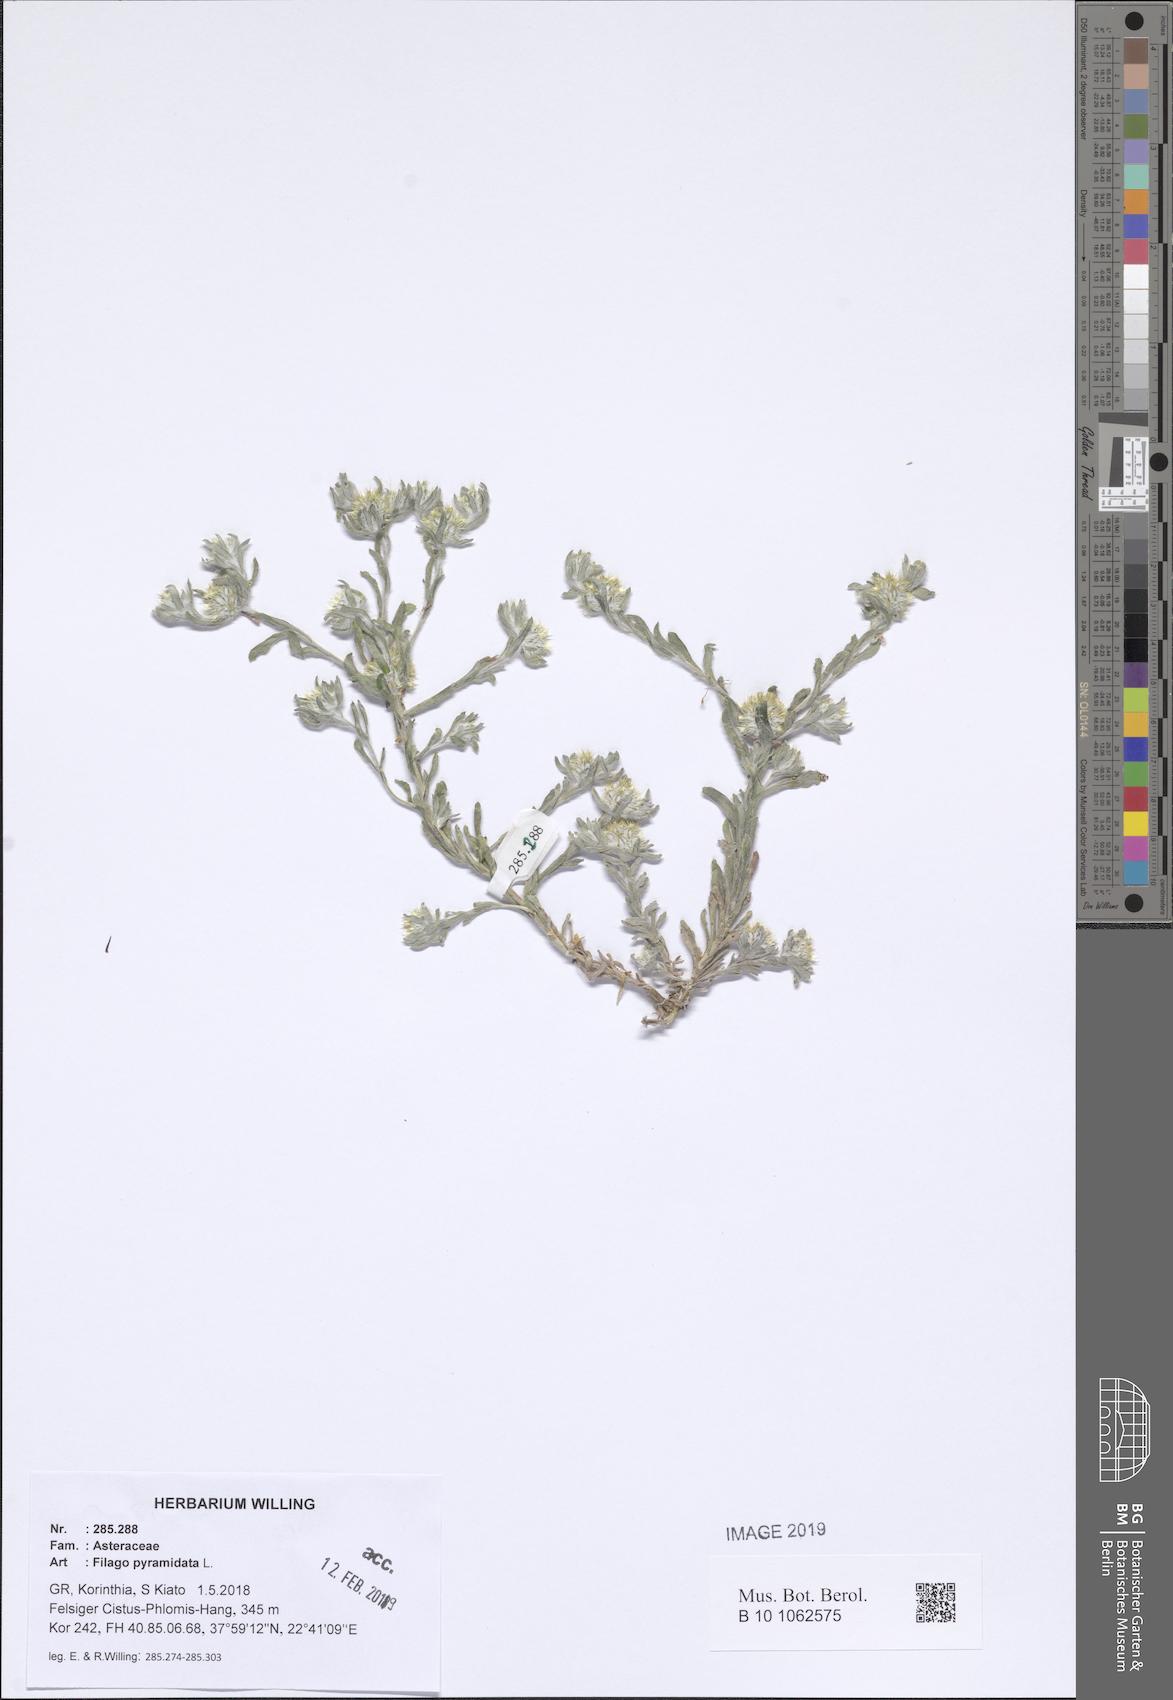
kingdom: Plantae
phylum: Tracheophyta
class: Magnoliopsida
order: Asterales
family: Asteraceae
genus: Filago
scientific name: Filago pyramidata
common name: Broad-leaved cudweed
